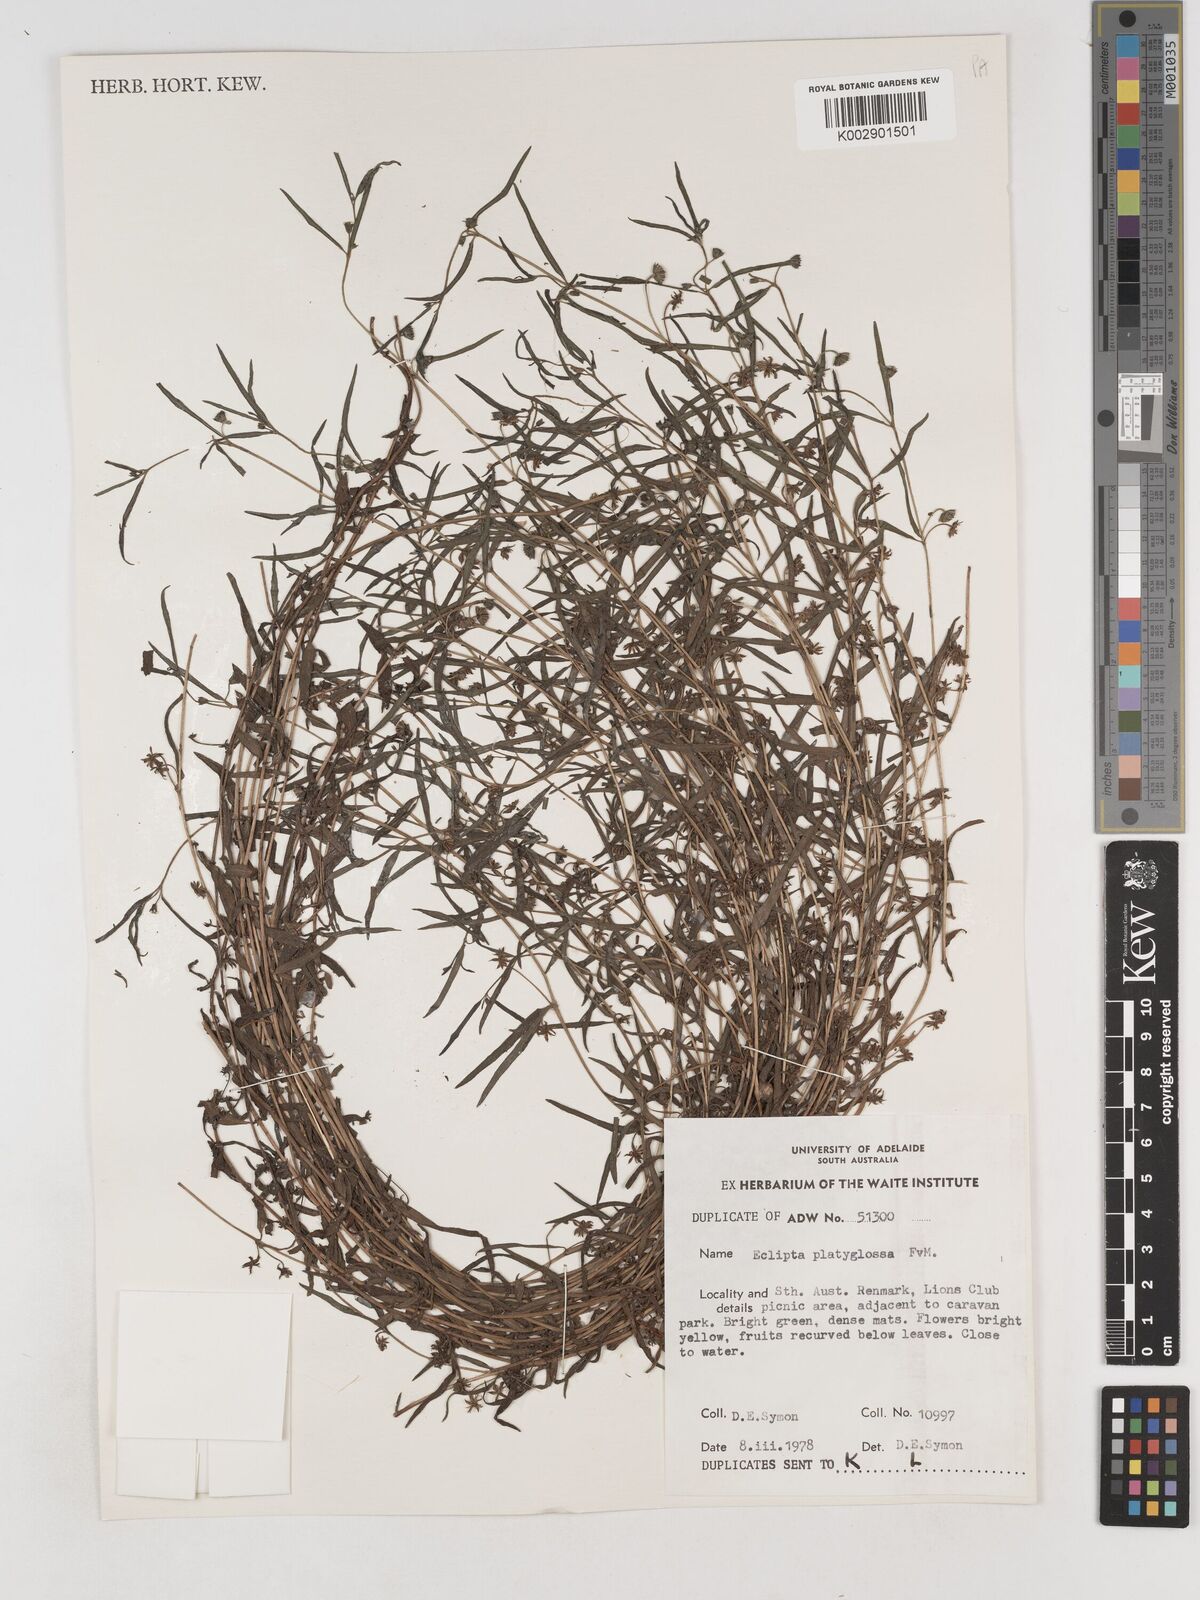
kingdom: Plantae
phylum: Tracheophyta
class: Magnoliopsida
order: Asterales
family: Asteraceae
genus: Eclipta
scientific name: Eclipta platyglossa
